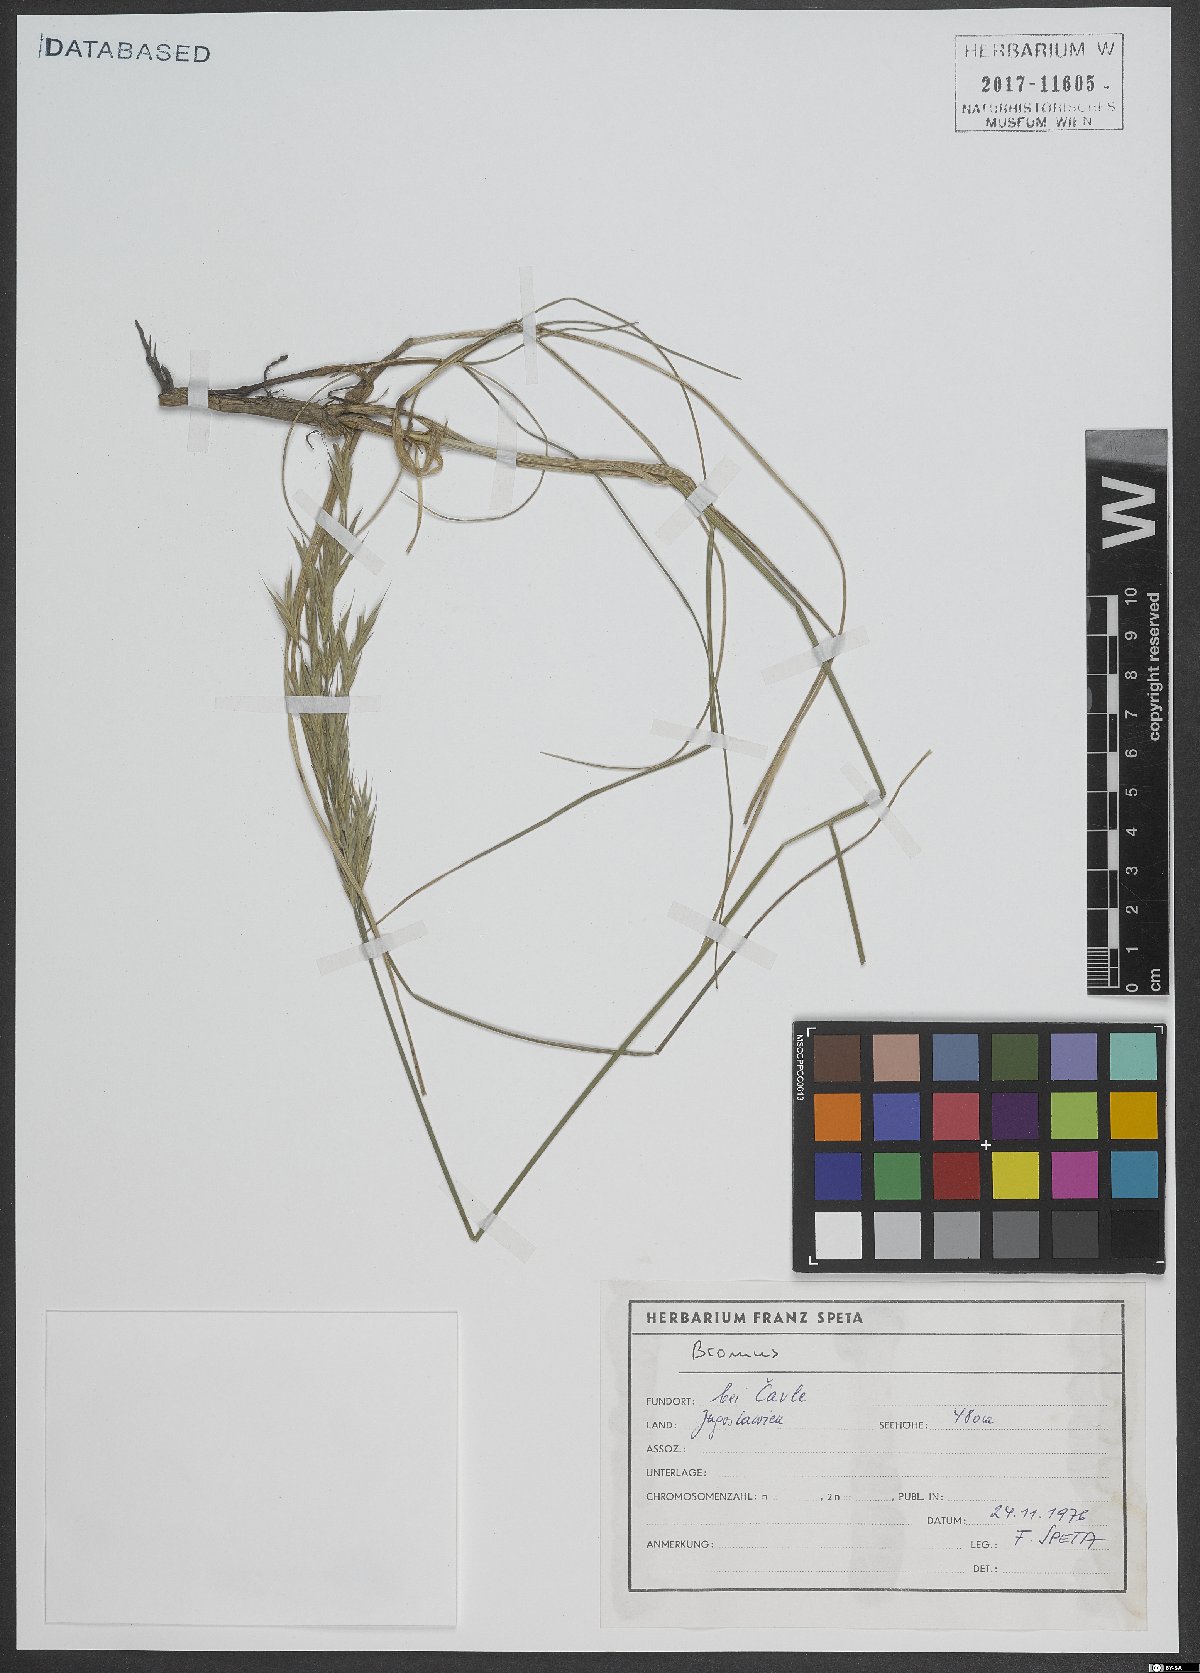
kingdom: Plantae
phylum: Tracheophyta
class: Liliopsida
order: Poales
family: Poaceae
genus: Bromus
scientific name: Bromus
